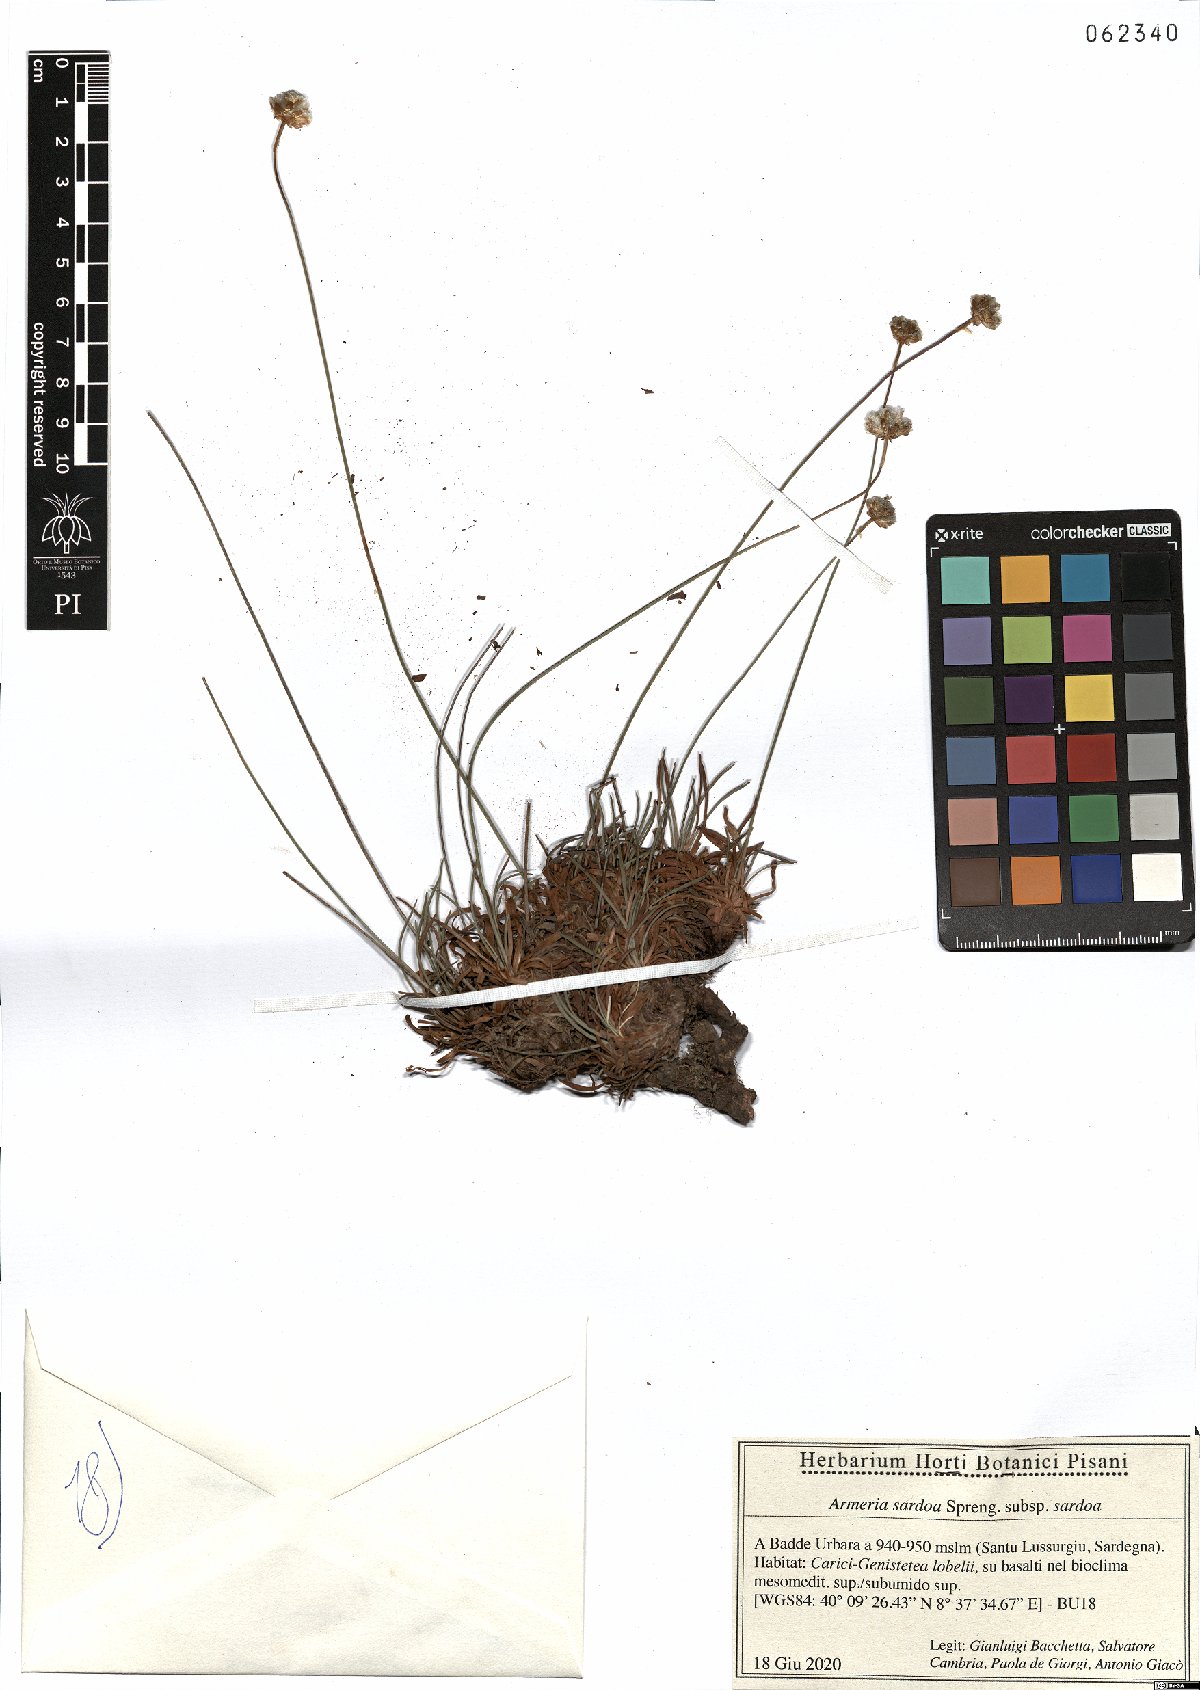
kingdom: Plantae
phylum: Tracheophyta
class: Magnoliopsida
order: Caryophyllales
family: Plumbaginaceae
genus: Armeria
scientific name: Armeria sardoa
